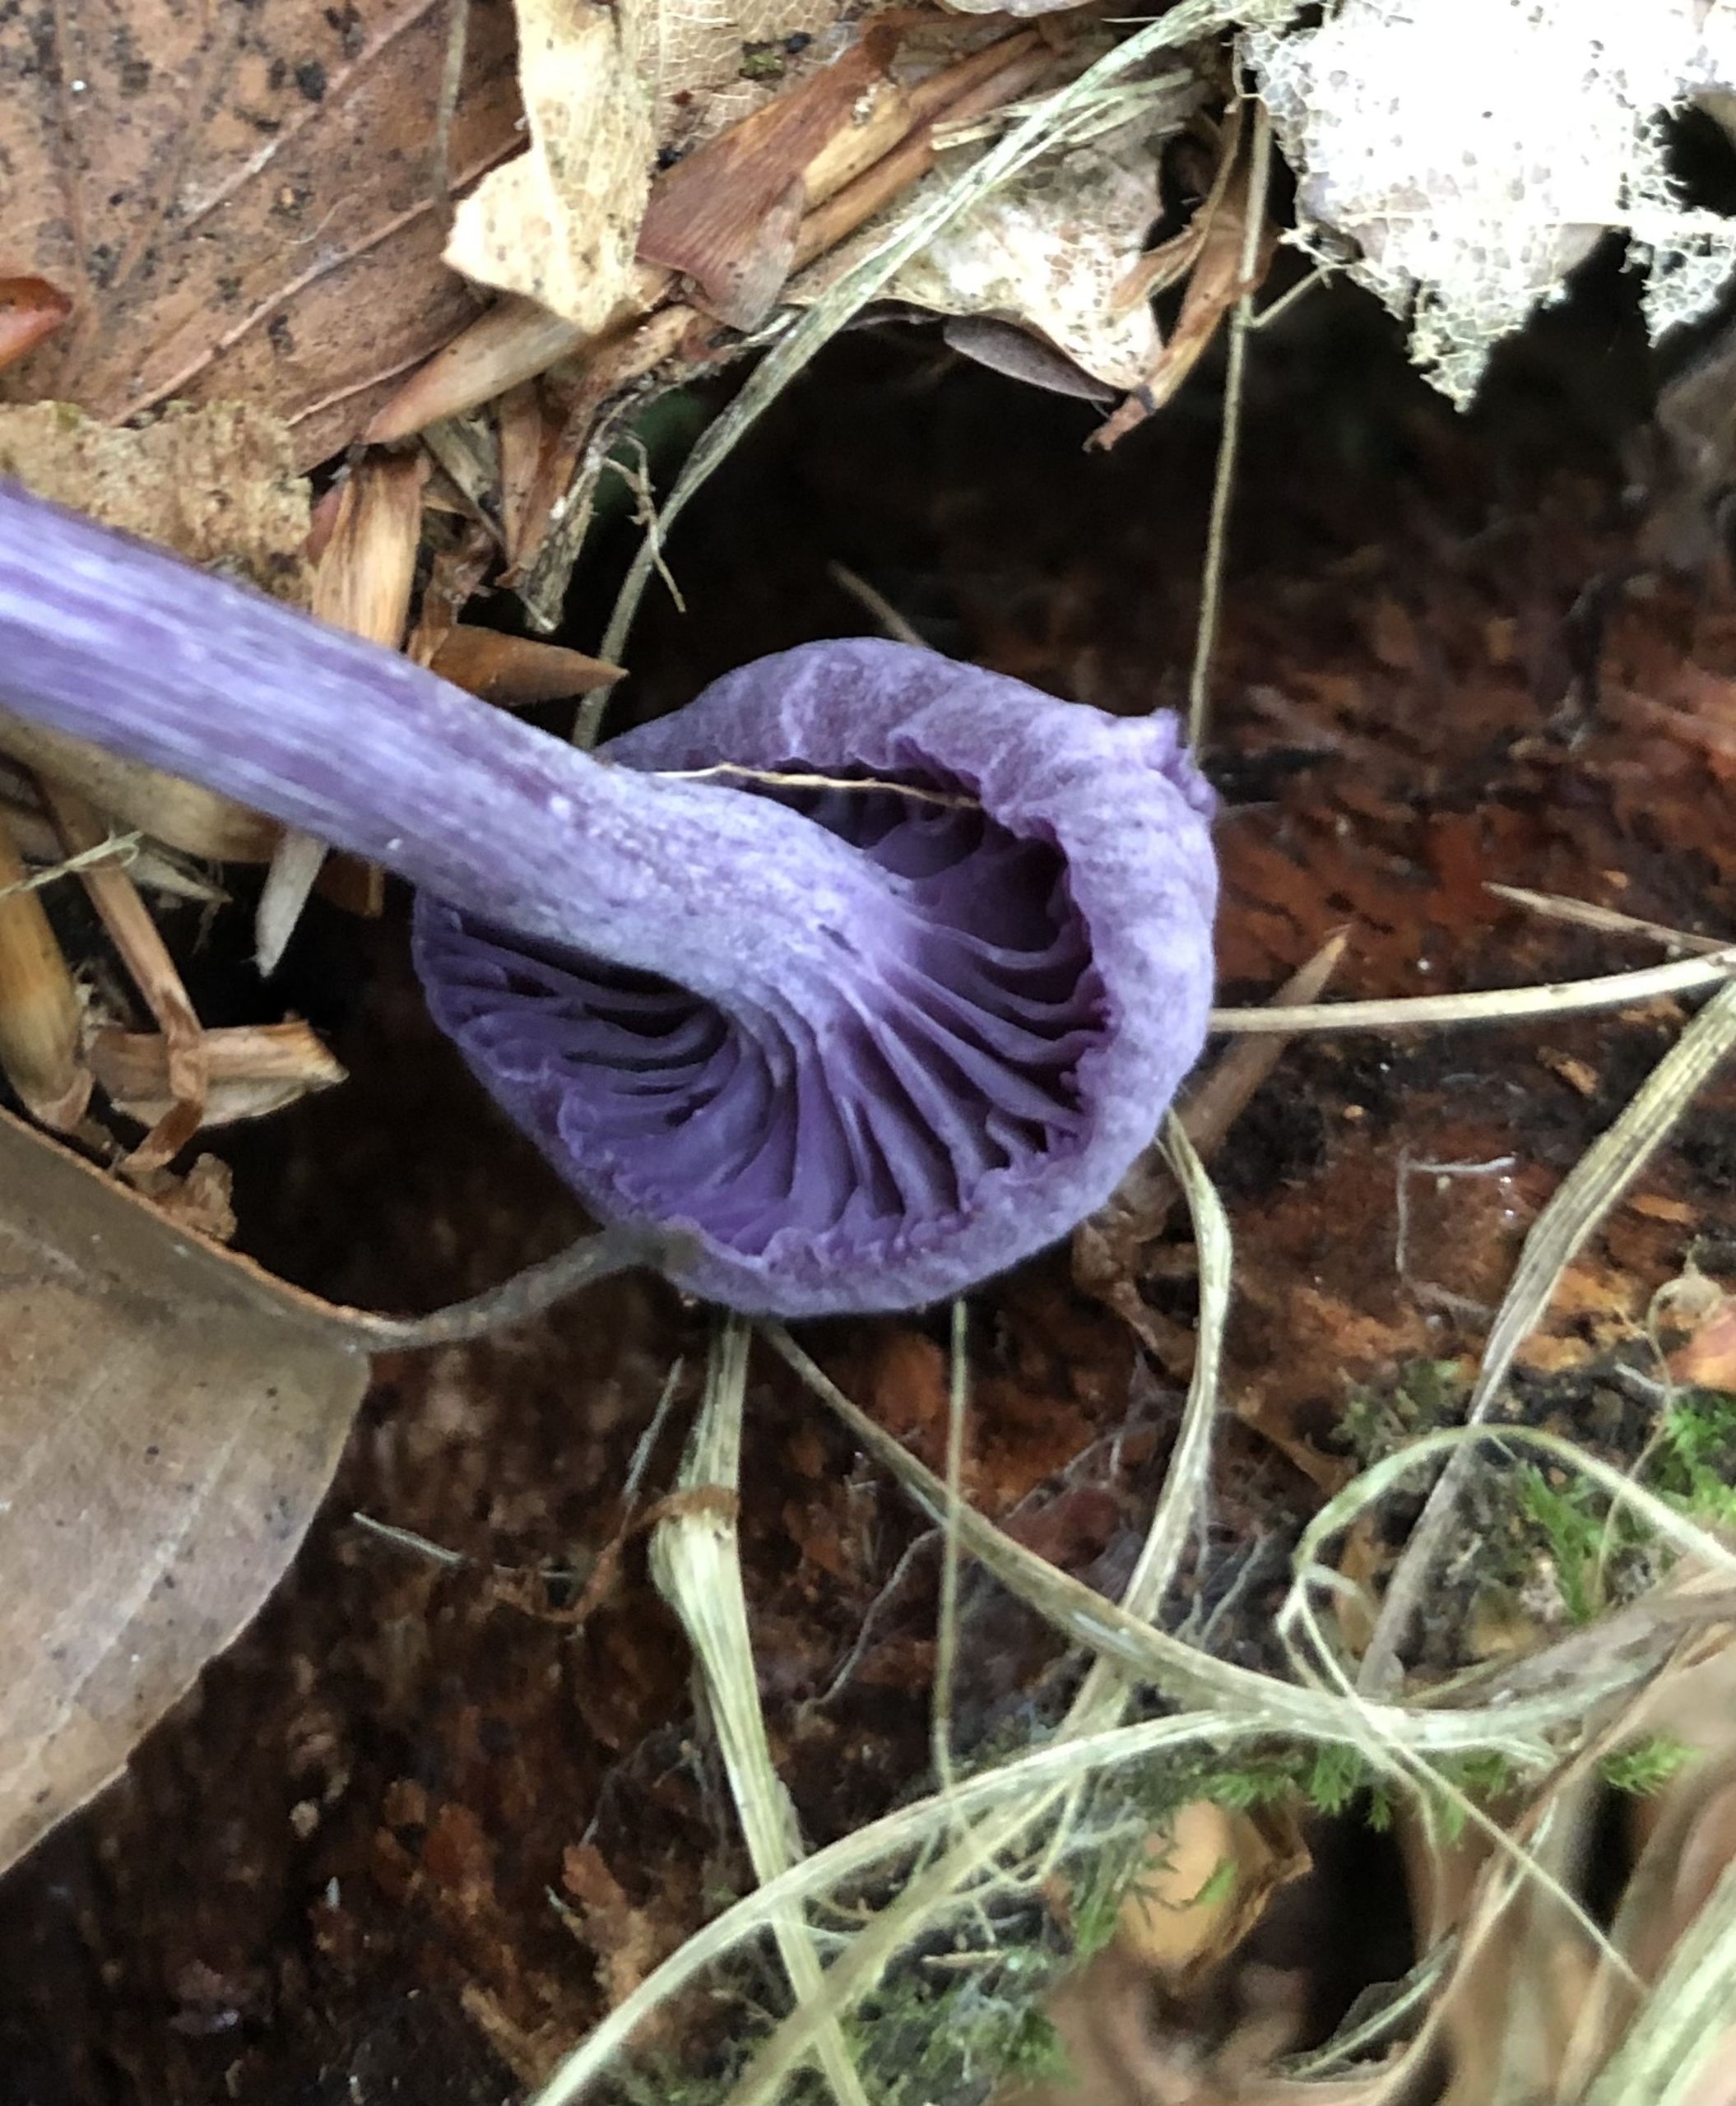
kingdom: Fungi
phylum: Basidiomycota
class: Agaricomycetes
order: Agaricales
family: Hydnangiaceae
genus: Laccaria
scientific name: Laccaria amethystina
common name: Violet ametysthat
